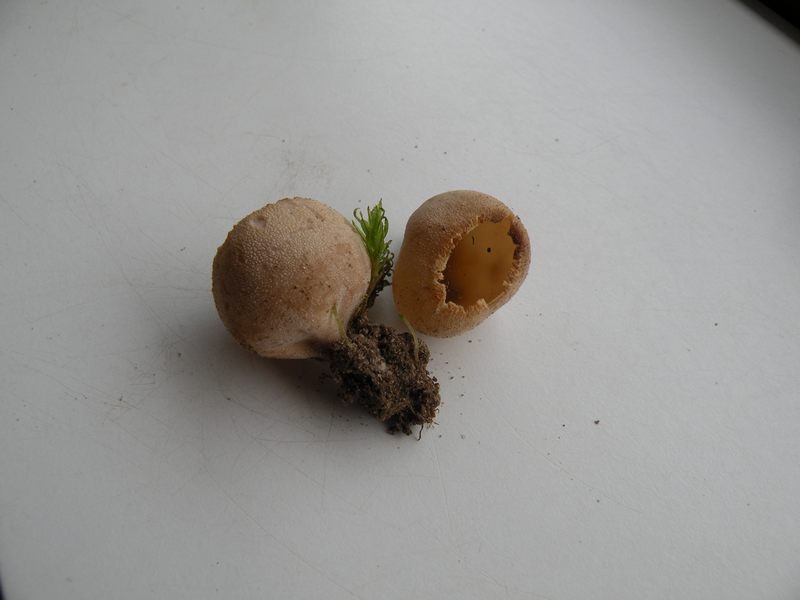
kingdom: Fungi
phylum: Ascomycota
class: Pezizomycetes
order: Pezizales
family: Pyronemataceae
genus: Tarzetta
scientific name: Tarzetta cupularis
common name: gulbrun pokalbæger
